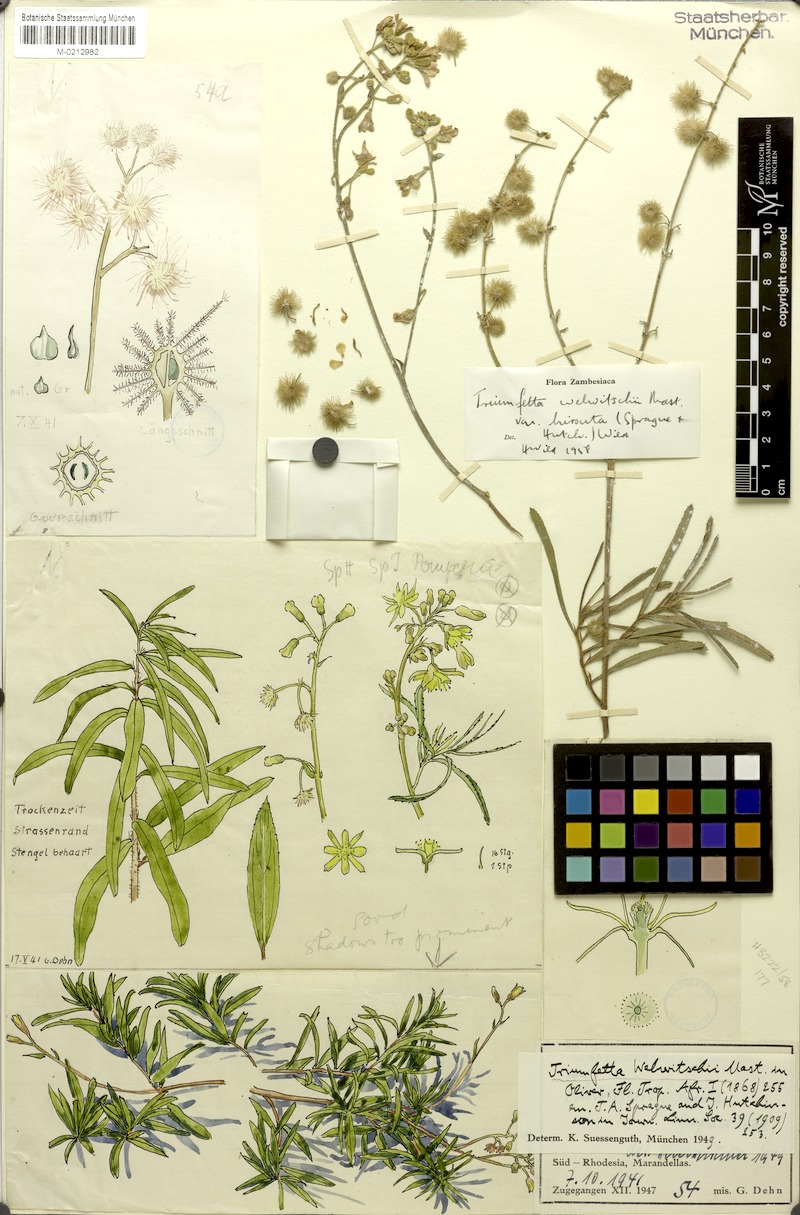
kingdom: Plantae
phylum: Tracheophyta
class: Magnoliopsida
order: Malvales
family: Malvaceae
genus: Triumfetta
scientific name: Triumfetta welwitschii
